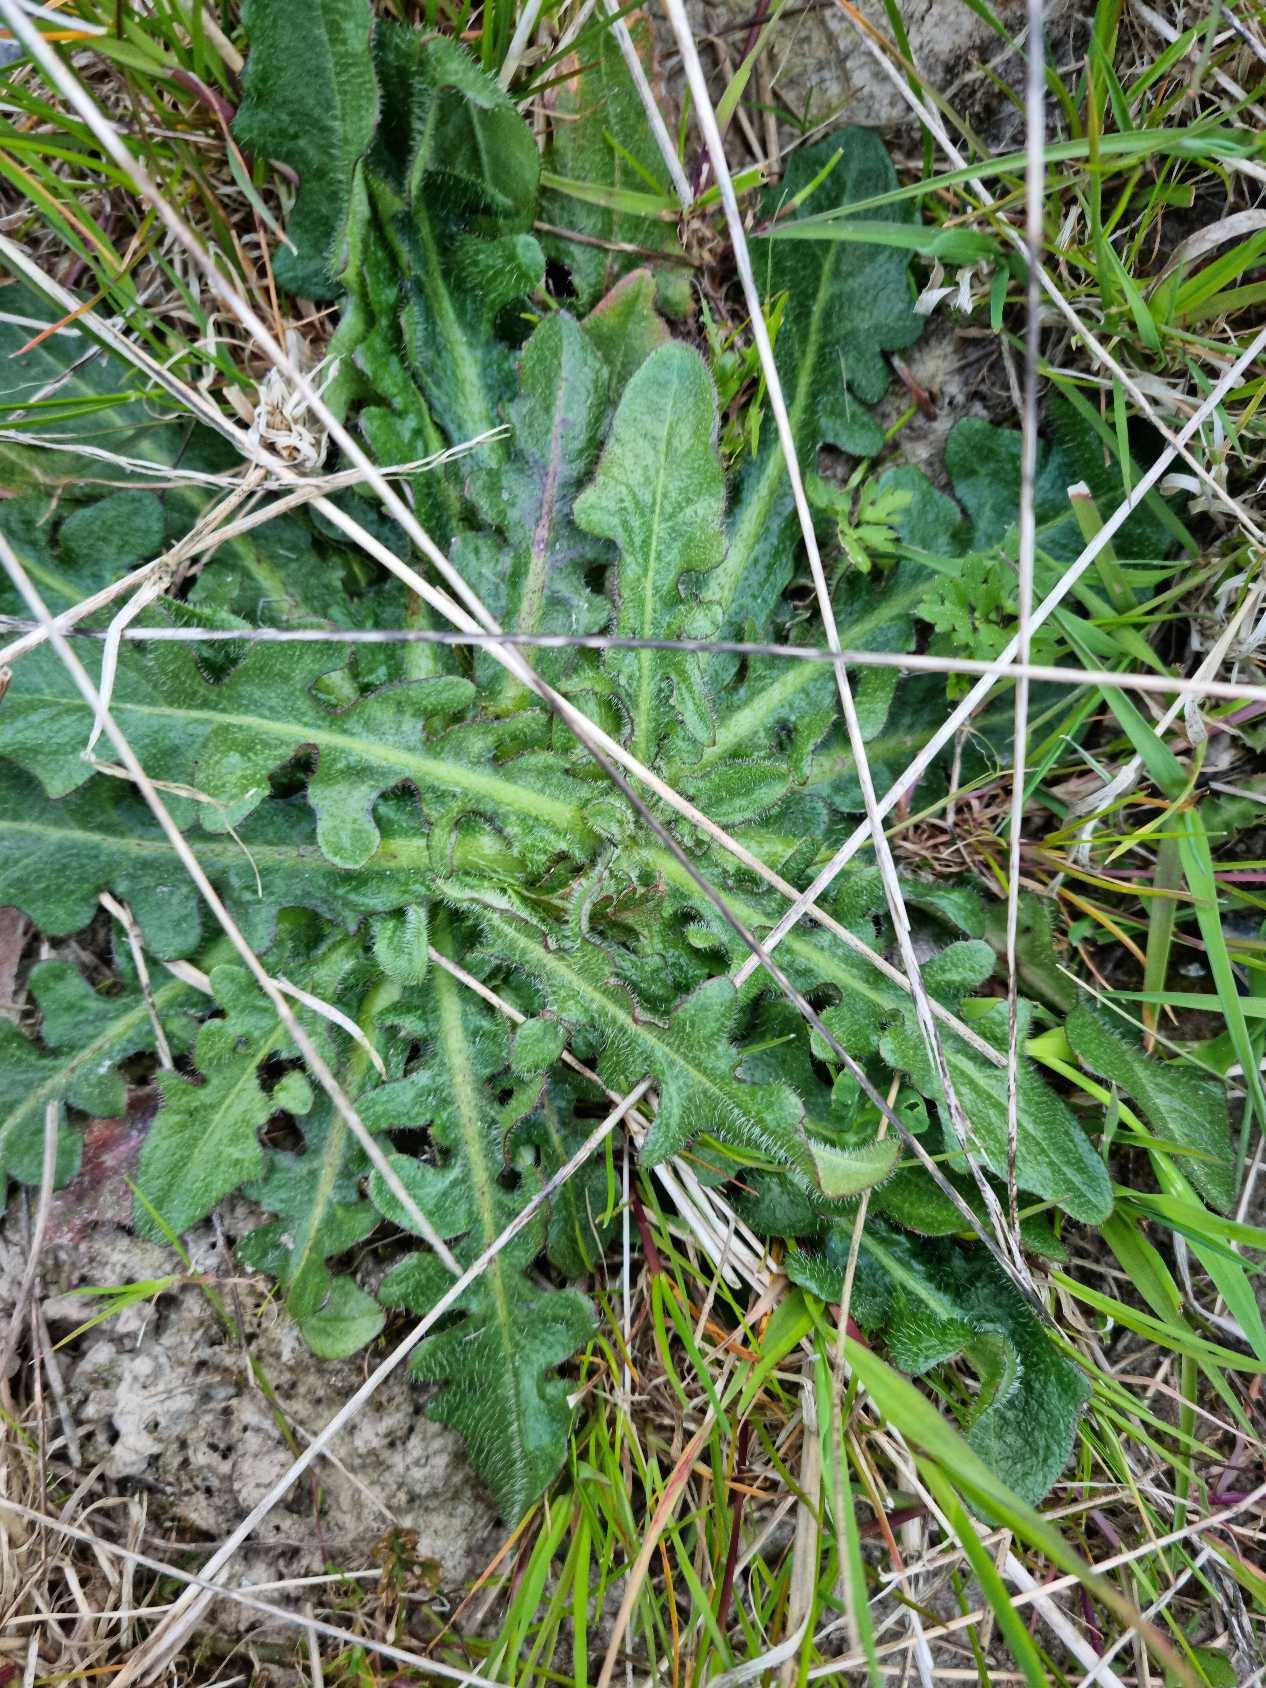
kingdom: Plantae
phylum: Tracheophyta
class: Magnoliopsida
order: Asterales
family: Asteraceae
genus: Hypochaeris
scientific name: Hypochaeris radicata
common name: Almindelig kongepen
